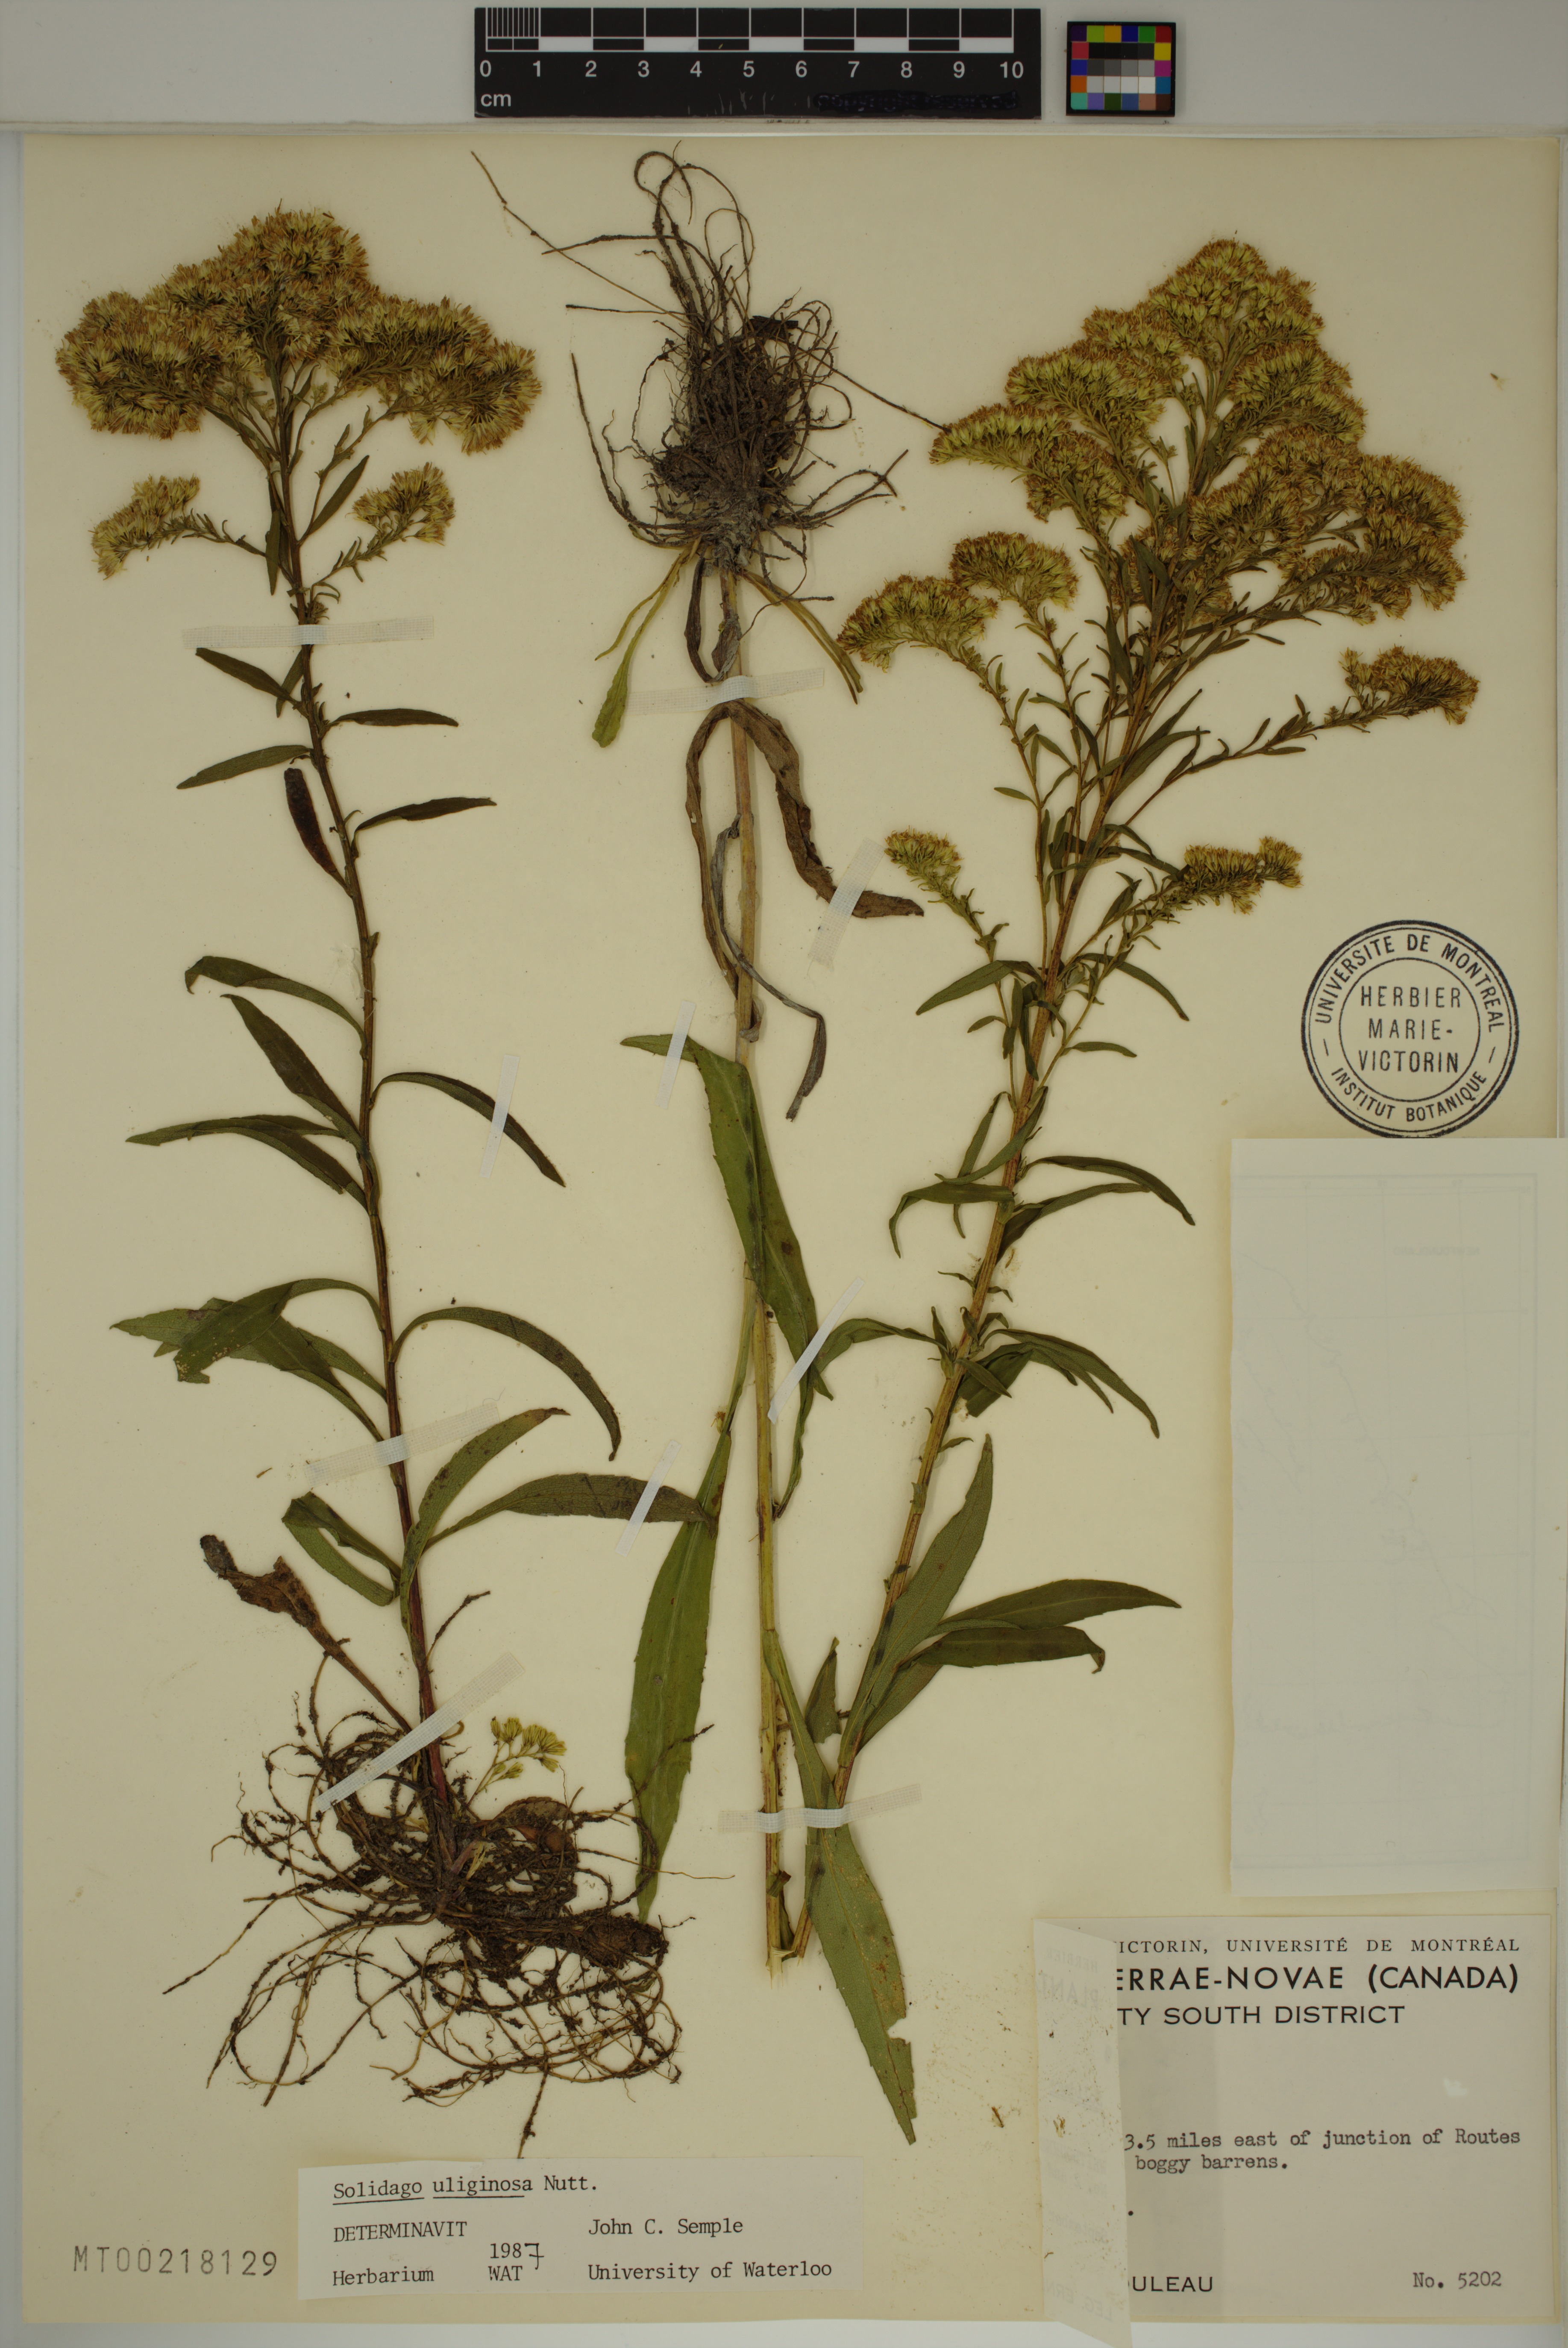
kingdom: Plantae
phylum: Tracheophyta
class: Magnoliopsida
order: Asterales
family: Asteraceae
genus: Solidago
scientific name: Solidago uliginosa
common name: Bog goldenrod
